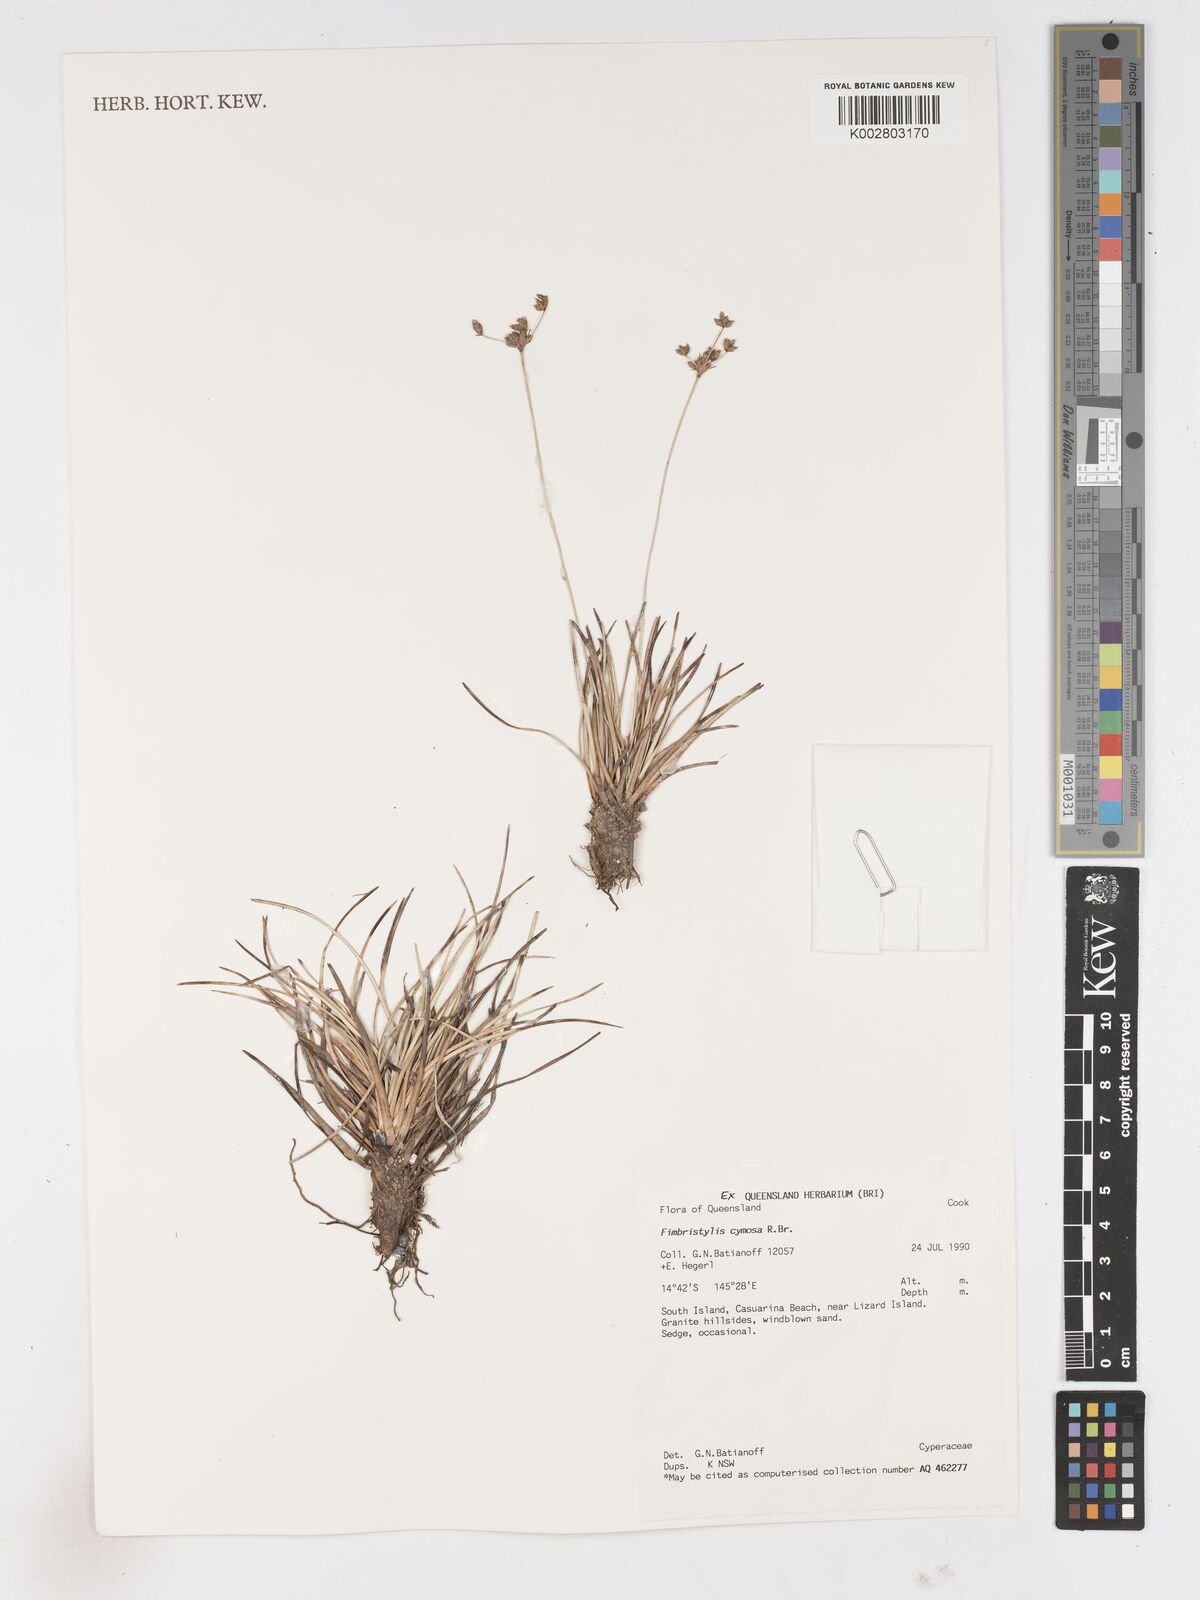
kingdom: Plantae
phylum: Tracheophyta
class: Liliopsida
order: Poales
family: Cyperaceae
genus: Fimbristylis
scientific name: Fimbristylis cymosa
